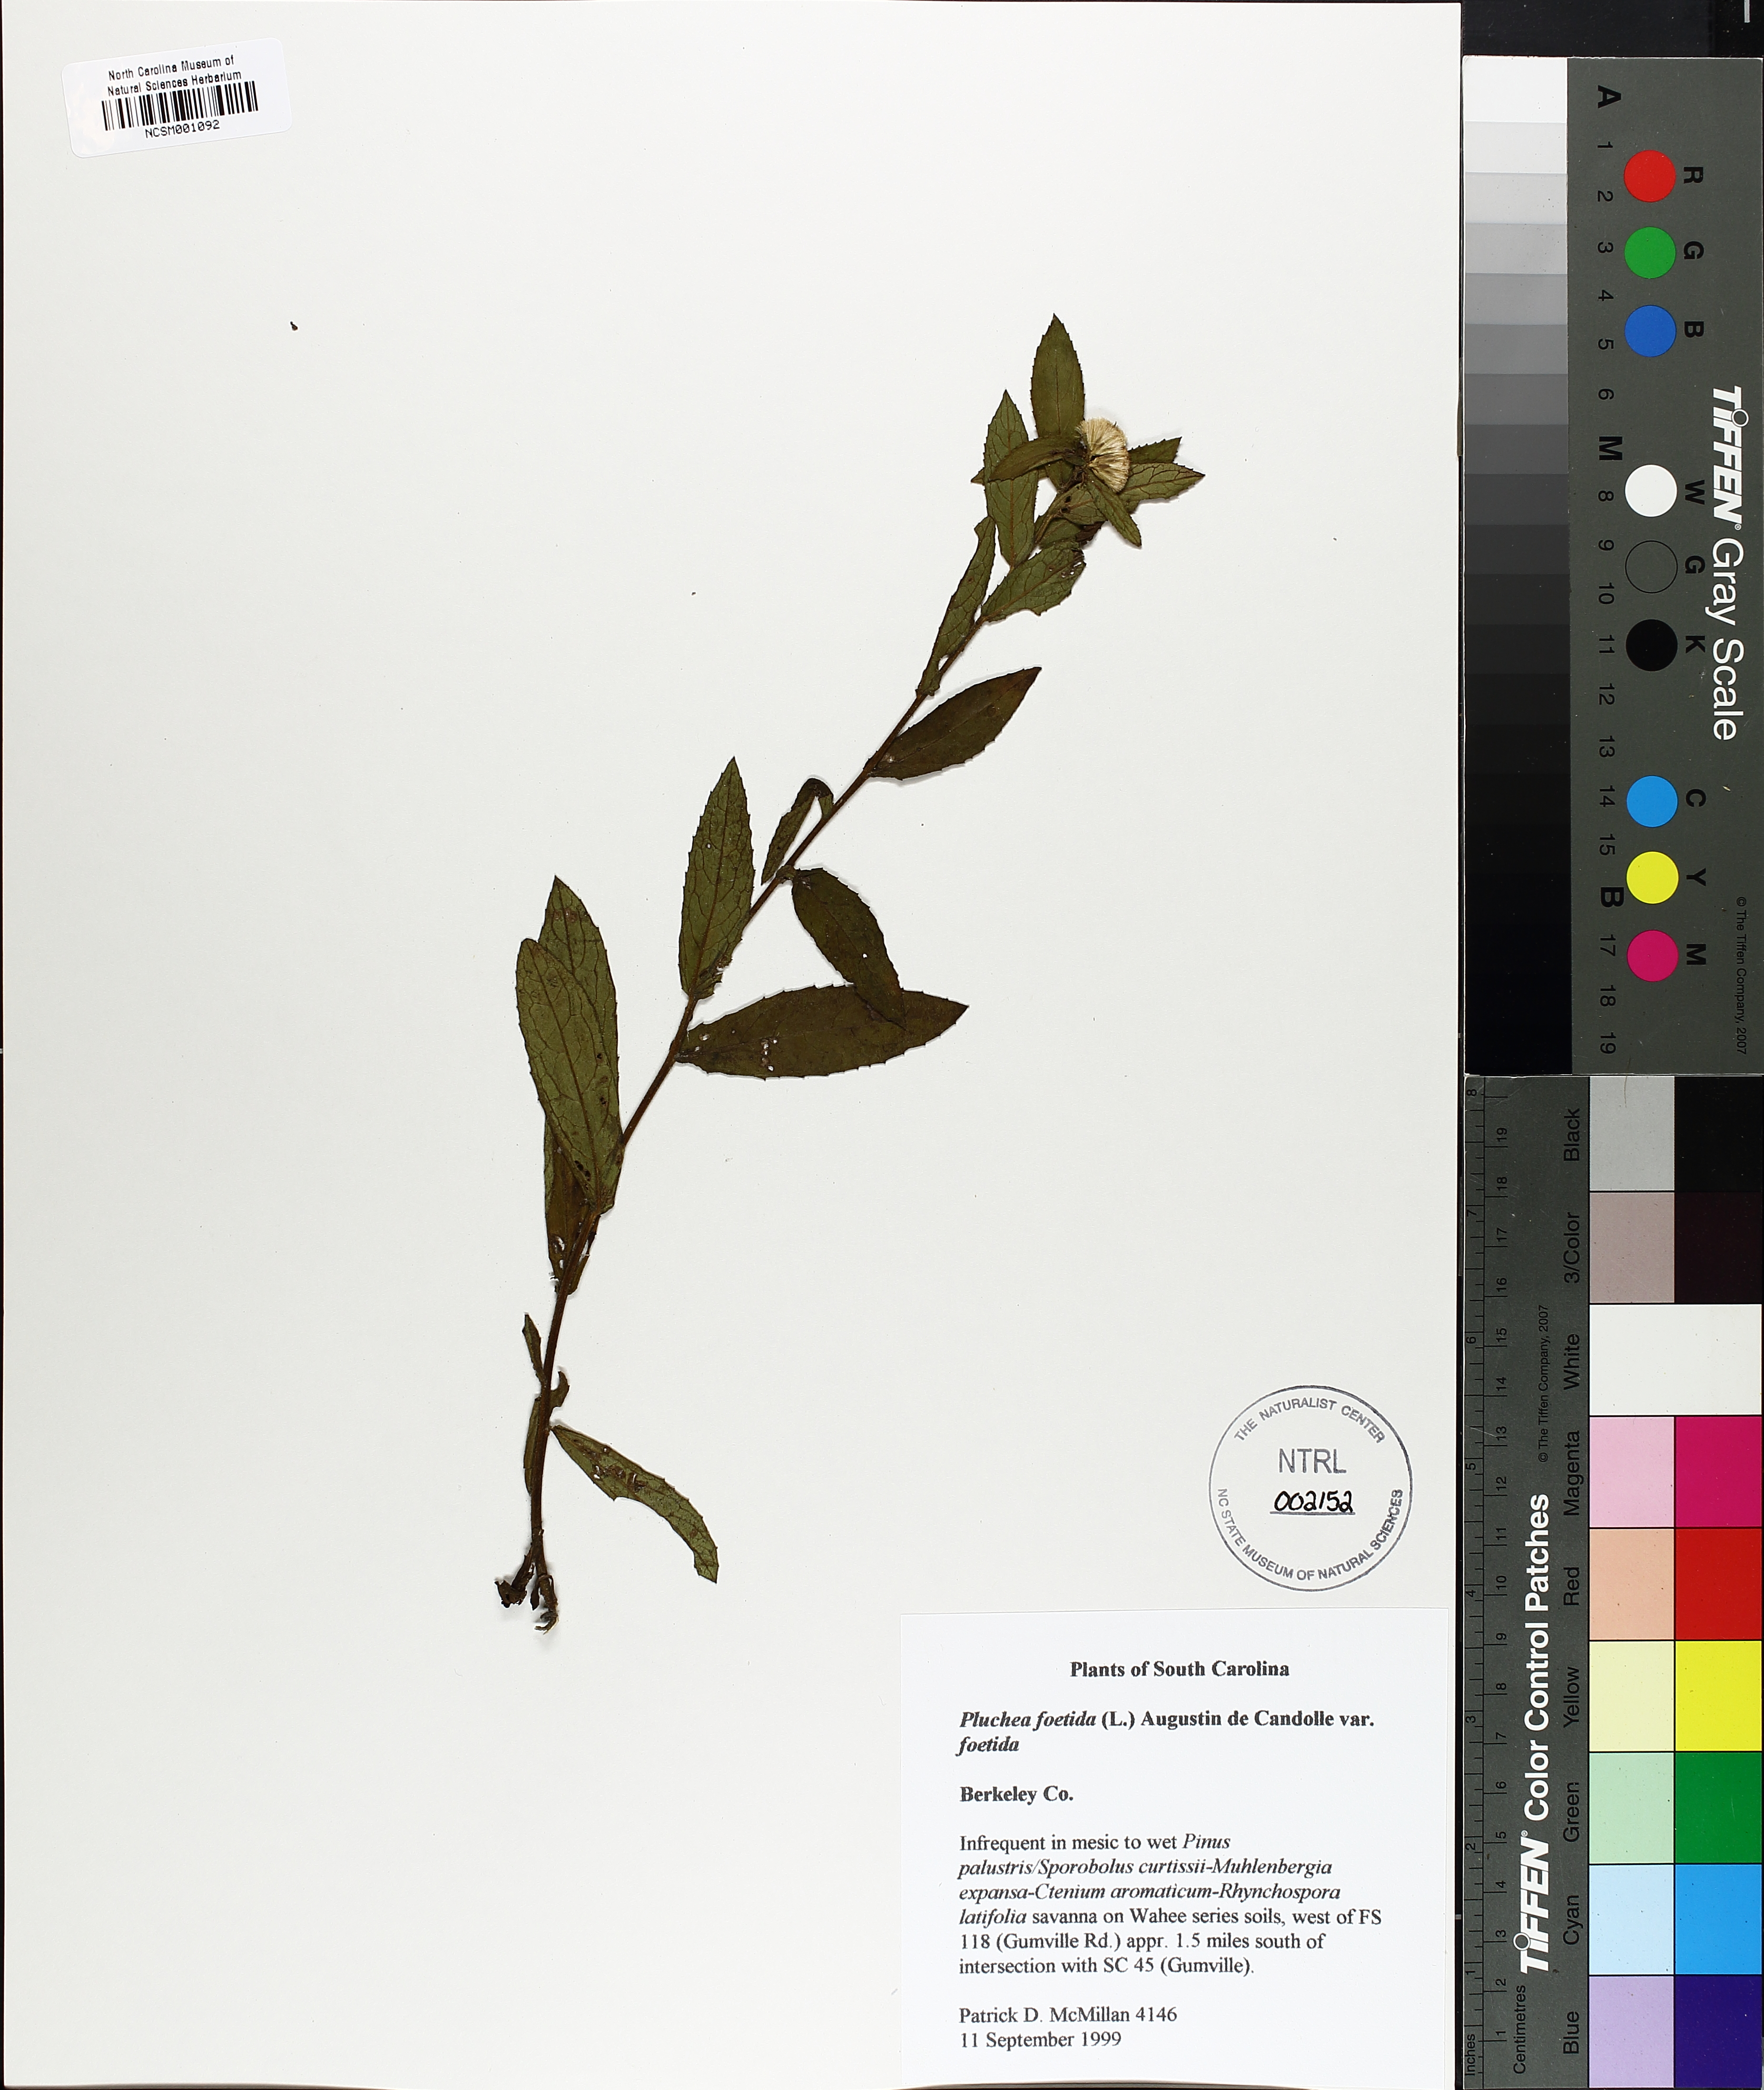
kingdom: Plantae
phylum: Tracheophyta
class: Magnoliopsida
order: Asterales
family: Asteraceae
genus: Pluchea
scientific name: Pluchea foetida
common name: Stinking camphorweed
